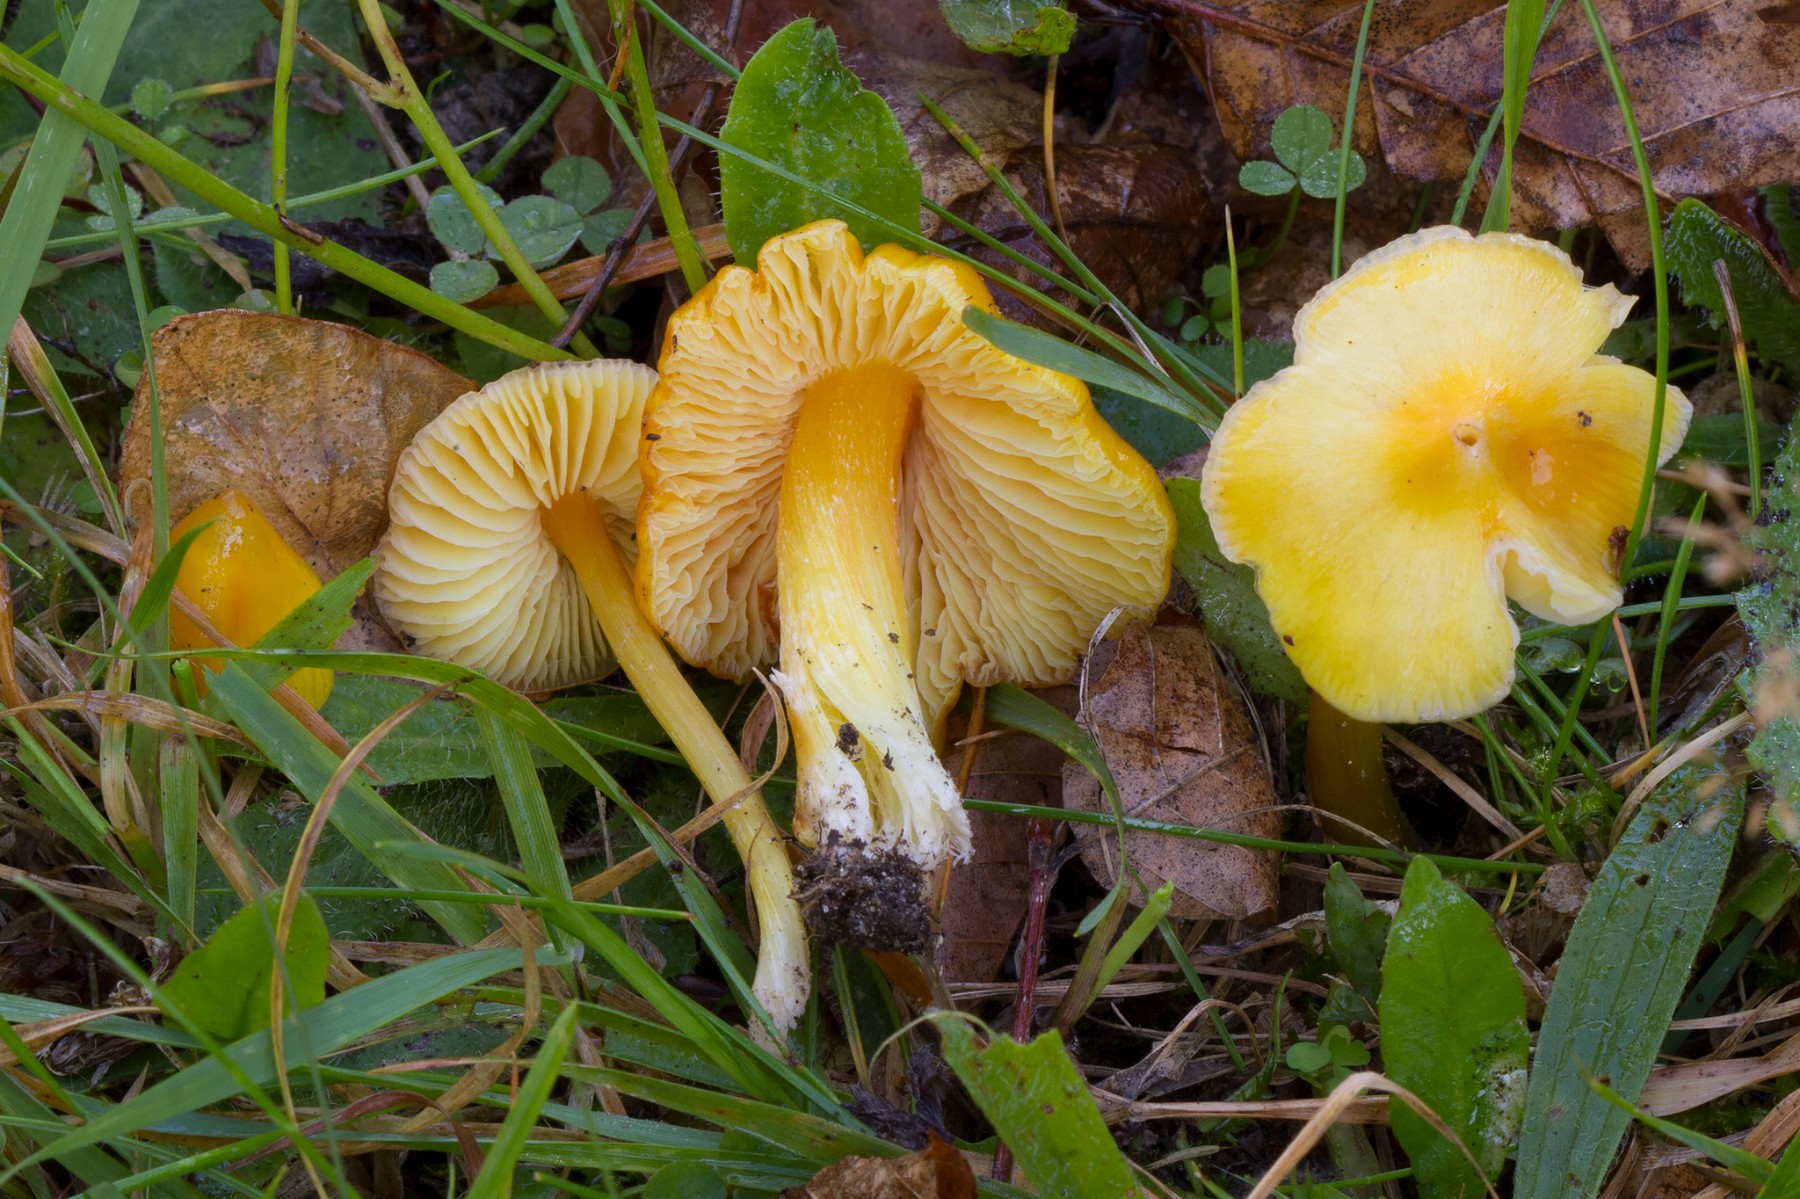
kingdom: Fungi
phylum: Basidiomycota
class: Agaricomycetes
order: Agaricales
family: Hygrophoraceae
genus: Hygrocybe
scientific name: Hygrocybe acutoconica
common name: spidspuklet vokshat
